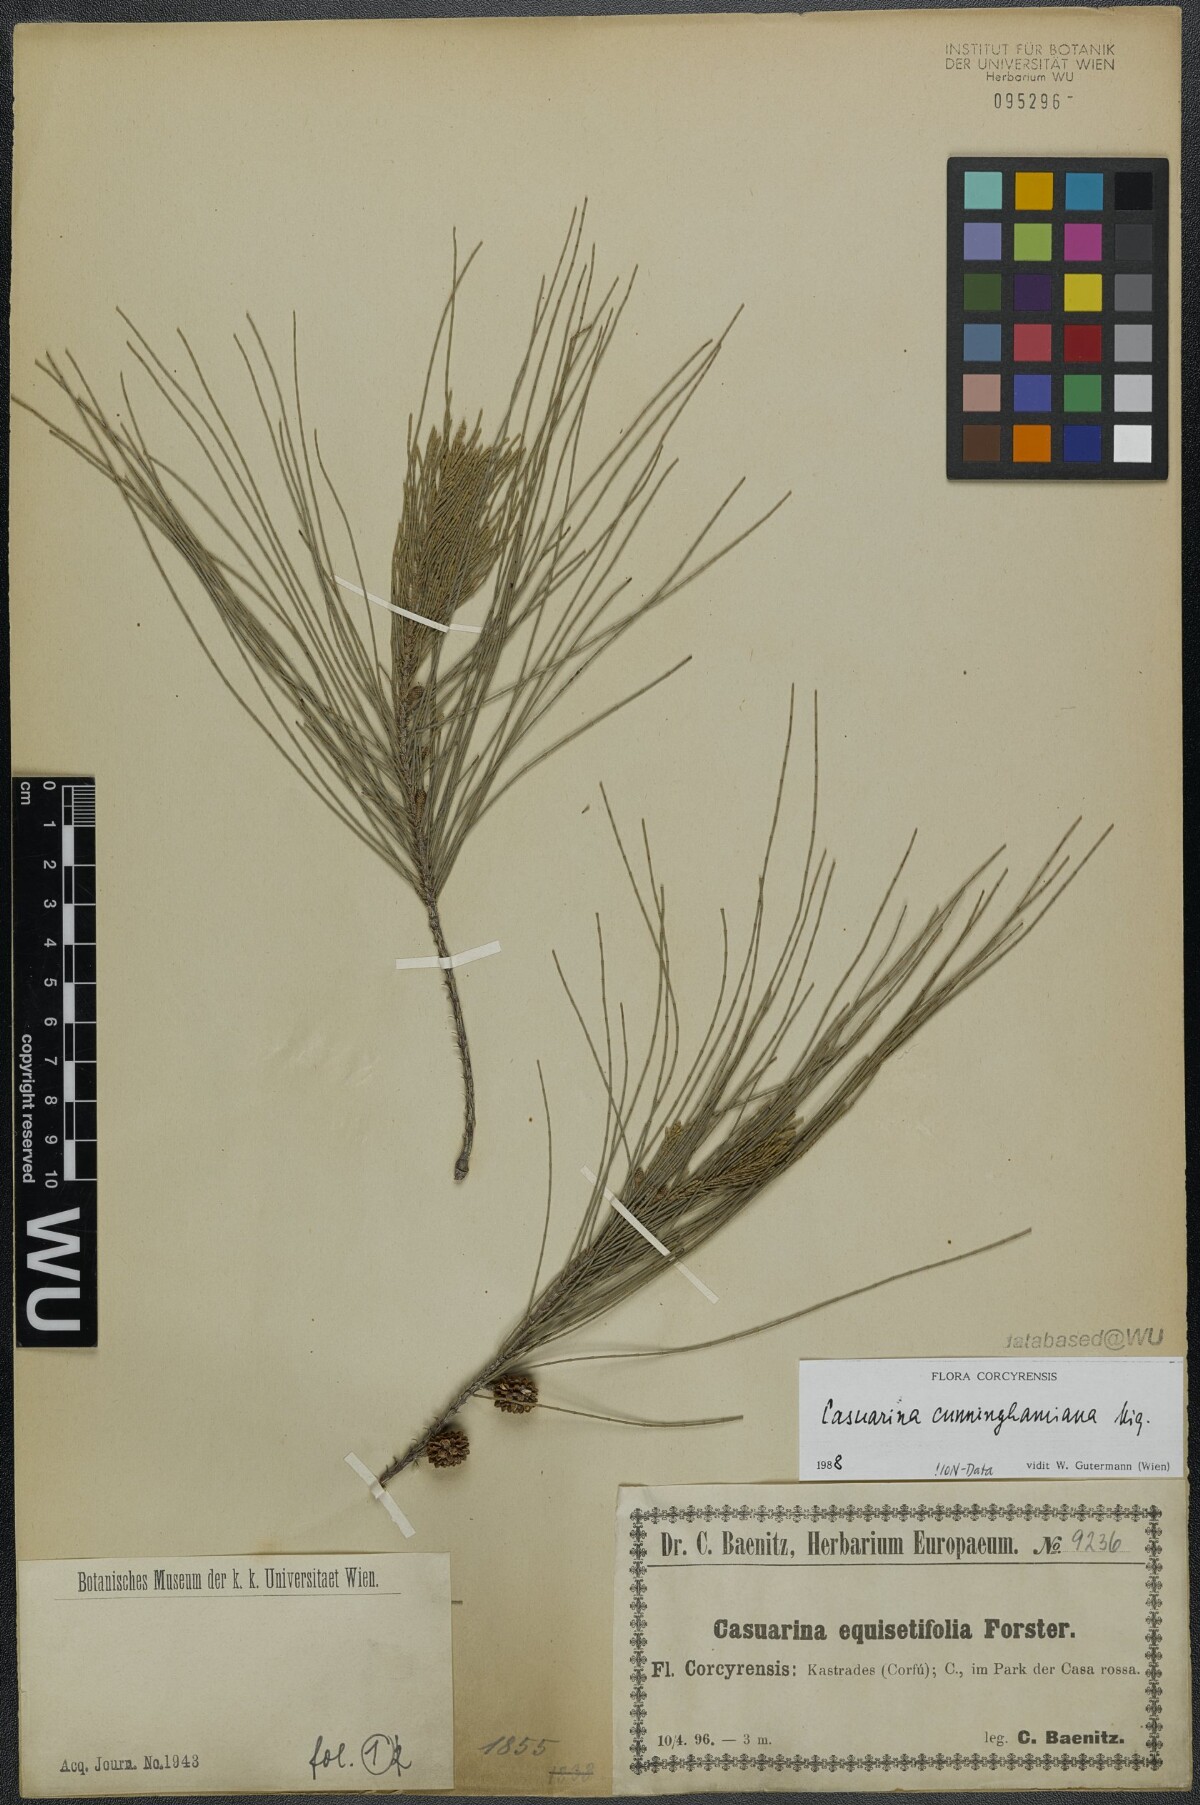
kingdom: Plantae
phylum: Tracheophyta
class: Magnoliopsida
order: Fagales
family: Casuarinaceae
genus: Casuarina
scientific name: Casuarina cunninghamiana
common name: River sheoak
